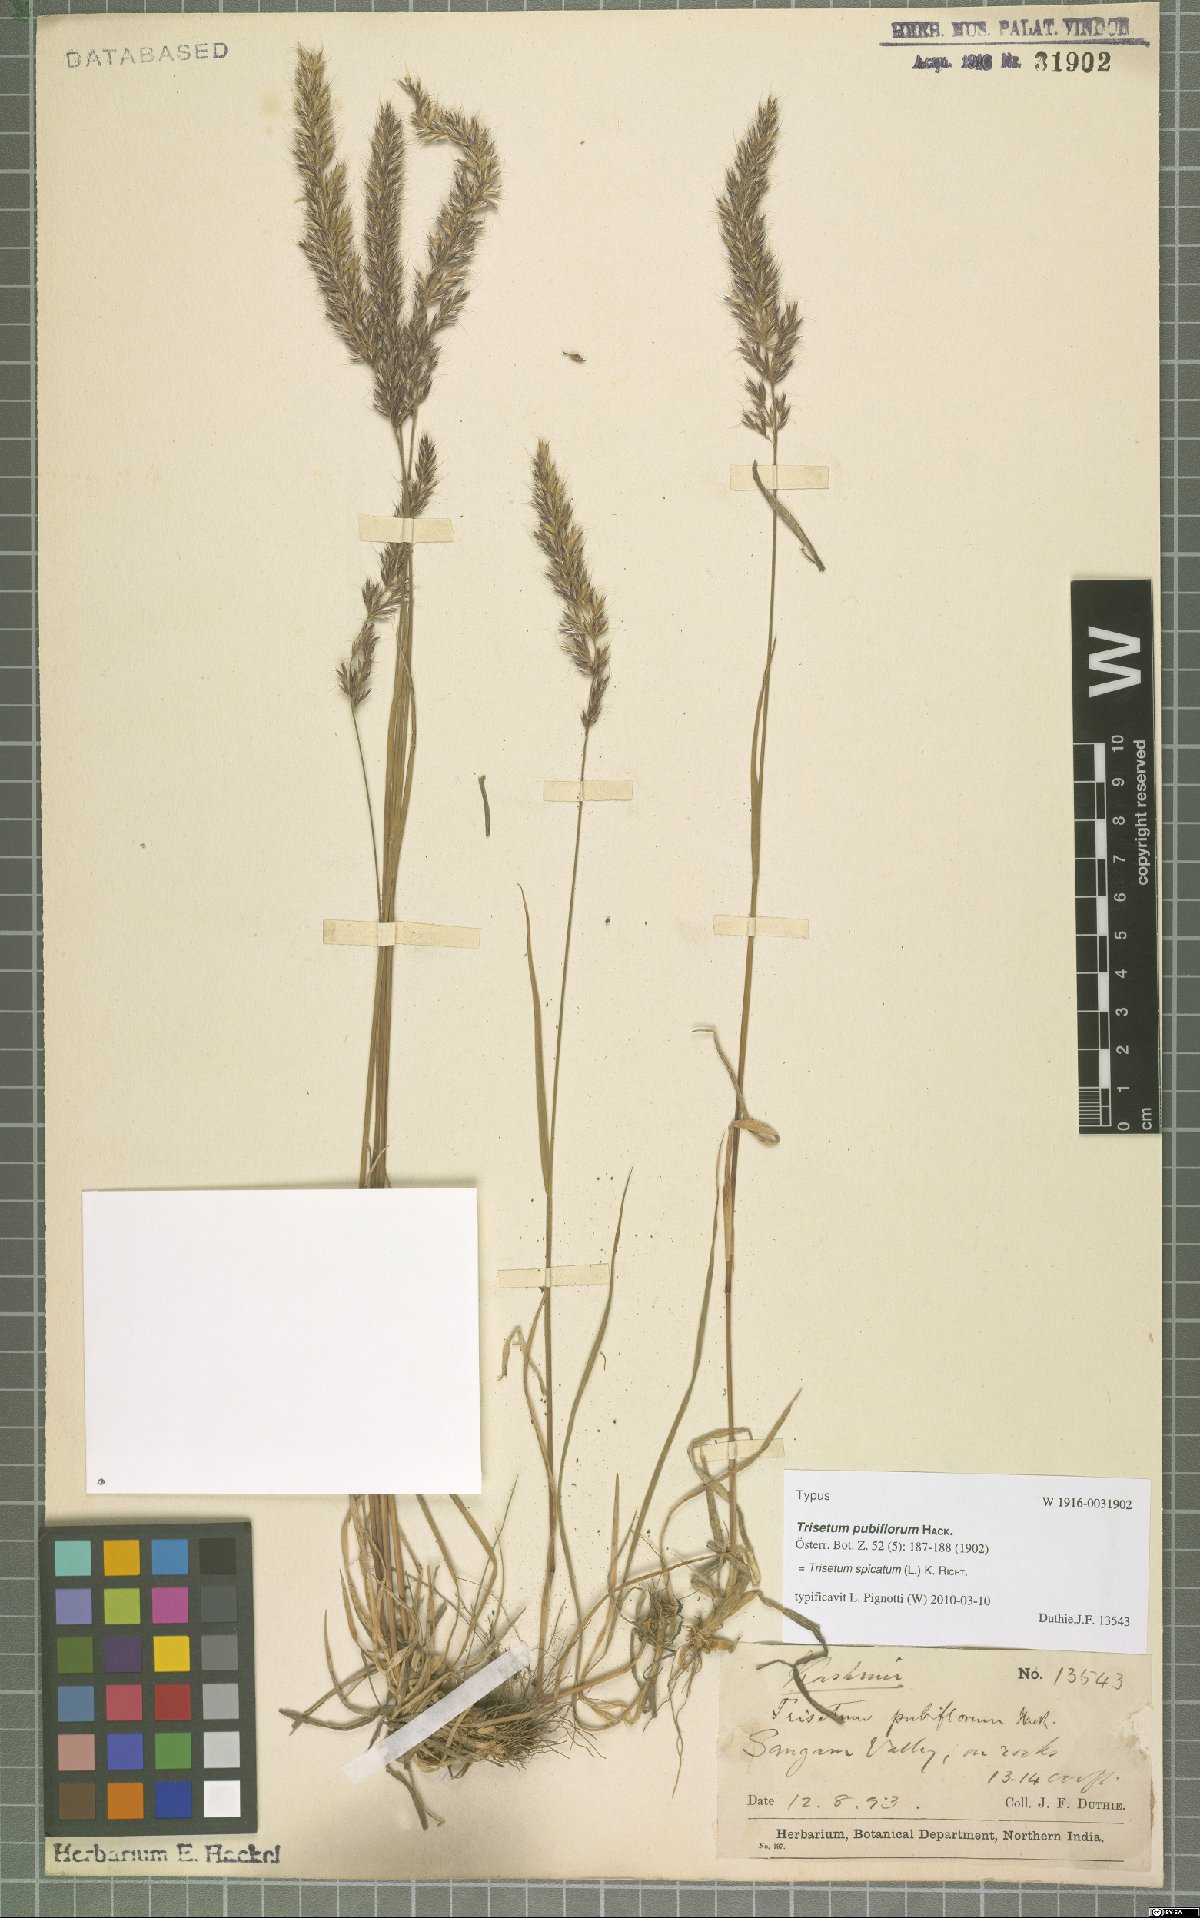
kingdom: Plantae
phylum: Tracheophyta
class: Liliopsida
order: Poales
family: Poaceae
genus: Koeleria
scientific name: Koeleria spicata
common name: Mountain trisetum
